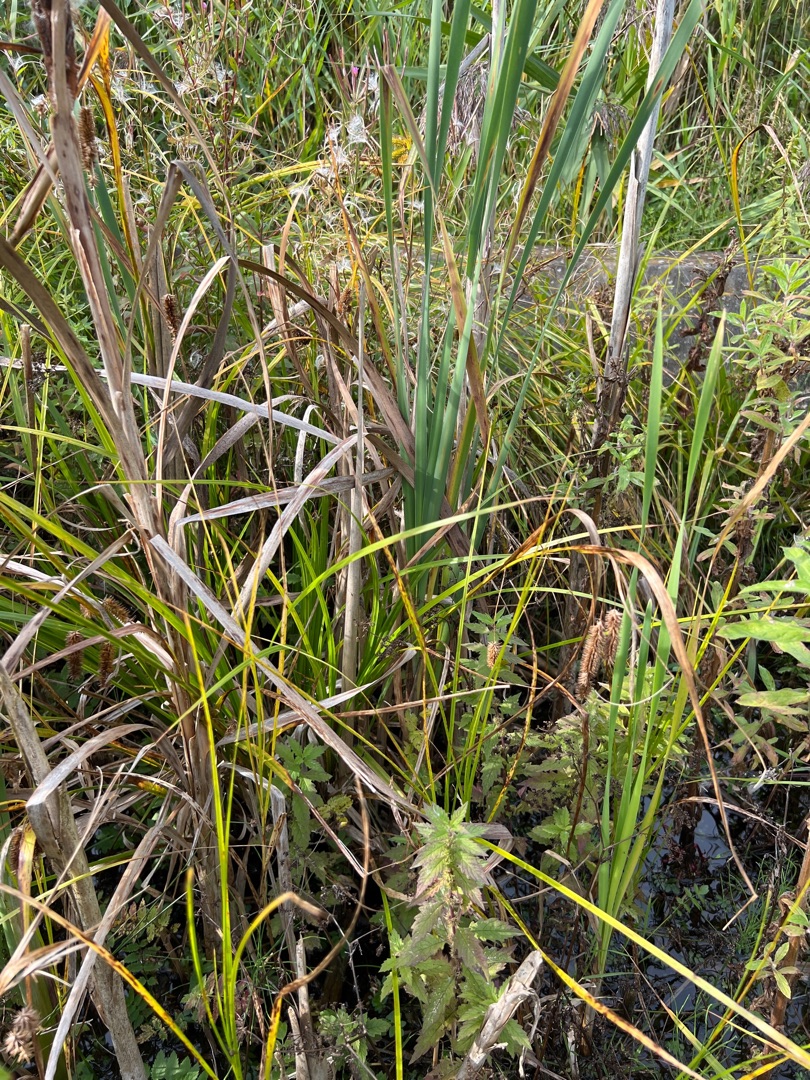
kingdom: Plantae
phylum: Tracheophyta
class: Liliopsida
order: Poales
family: Cyperaceae
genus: Carex
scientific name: Carex pseudocyperus
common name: Knippe-star
